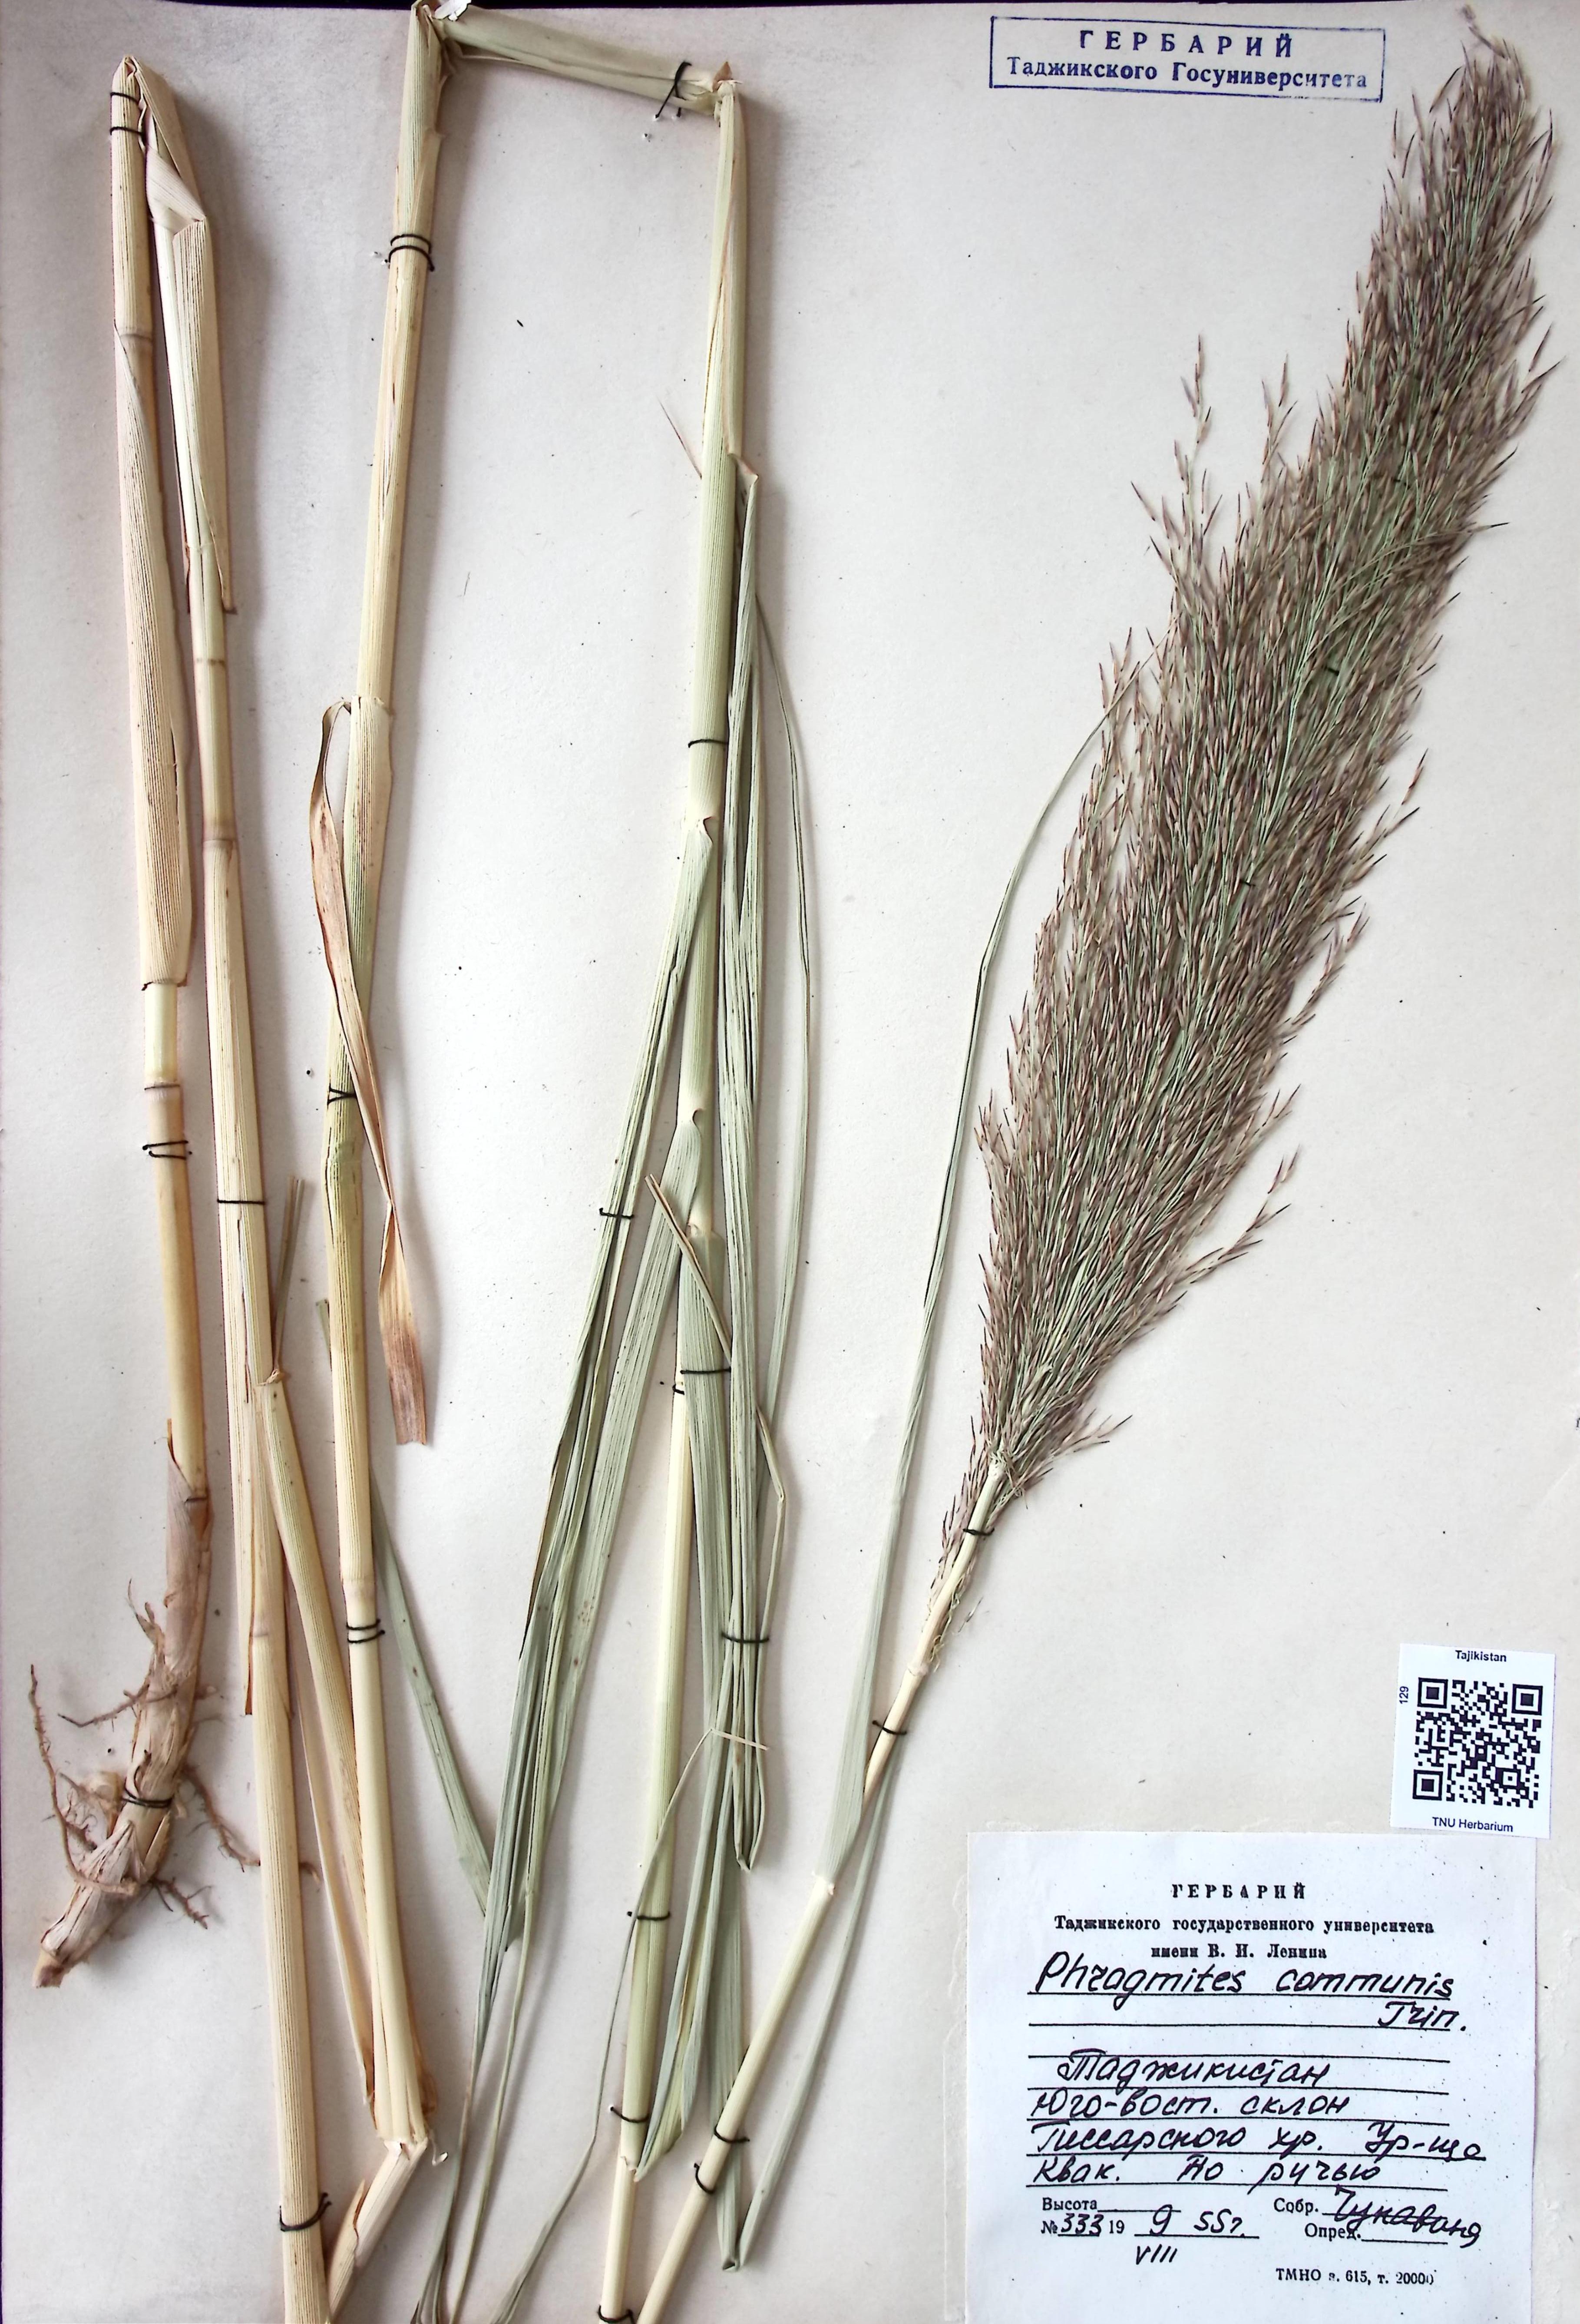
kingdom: Plantae
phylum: Tracheophyta
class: Liliopsida
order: Poales
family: Poaceae
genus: Phragmites
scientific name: Phragmites australis
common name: Common reed
